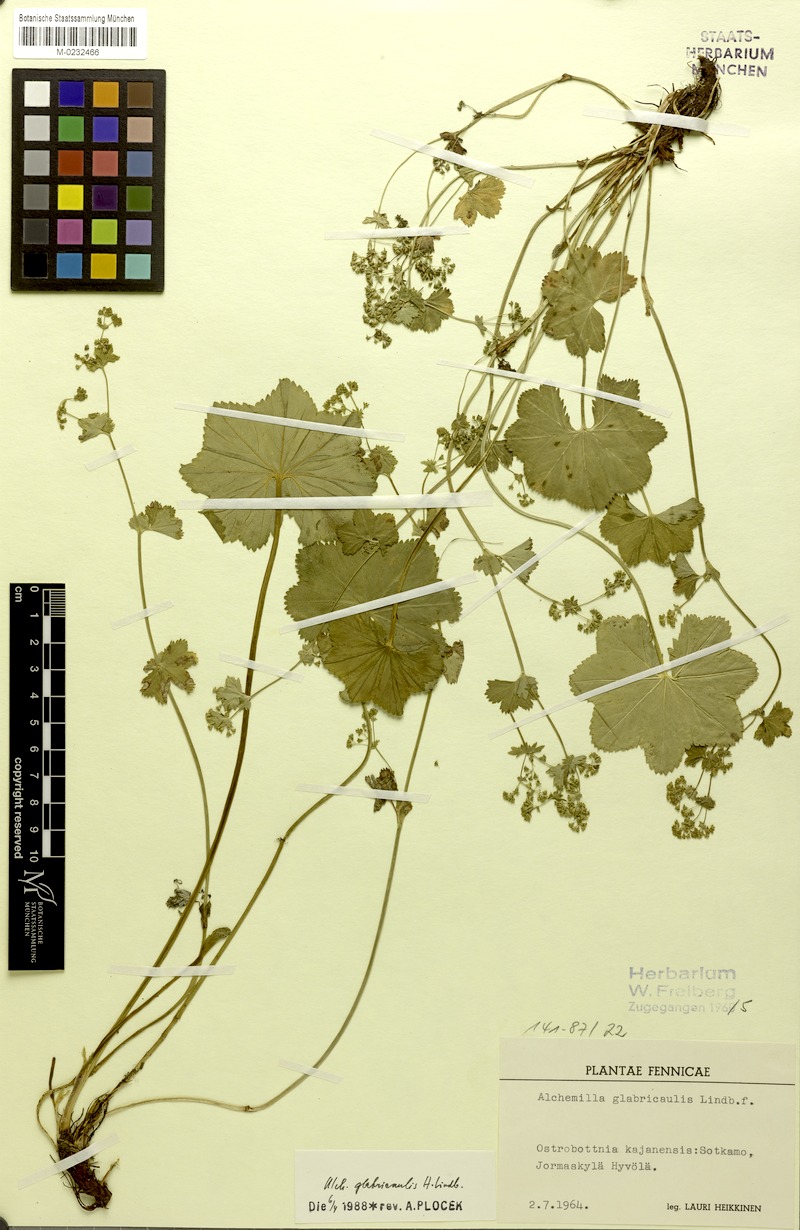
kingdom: Plantae
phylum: Tracheophyta
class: Magnoliopsida
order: Rosales
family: Rosaceae
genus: Alchemilla
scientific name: Alchemilla glabricaulis
